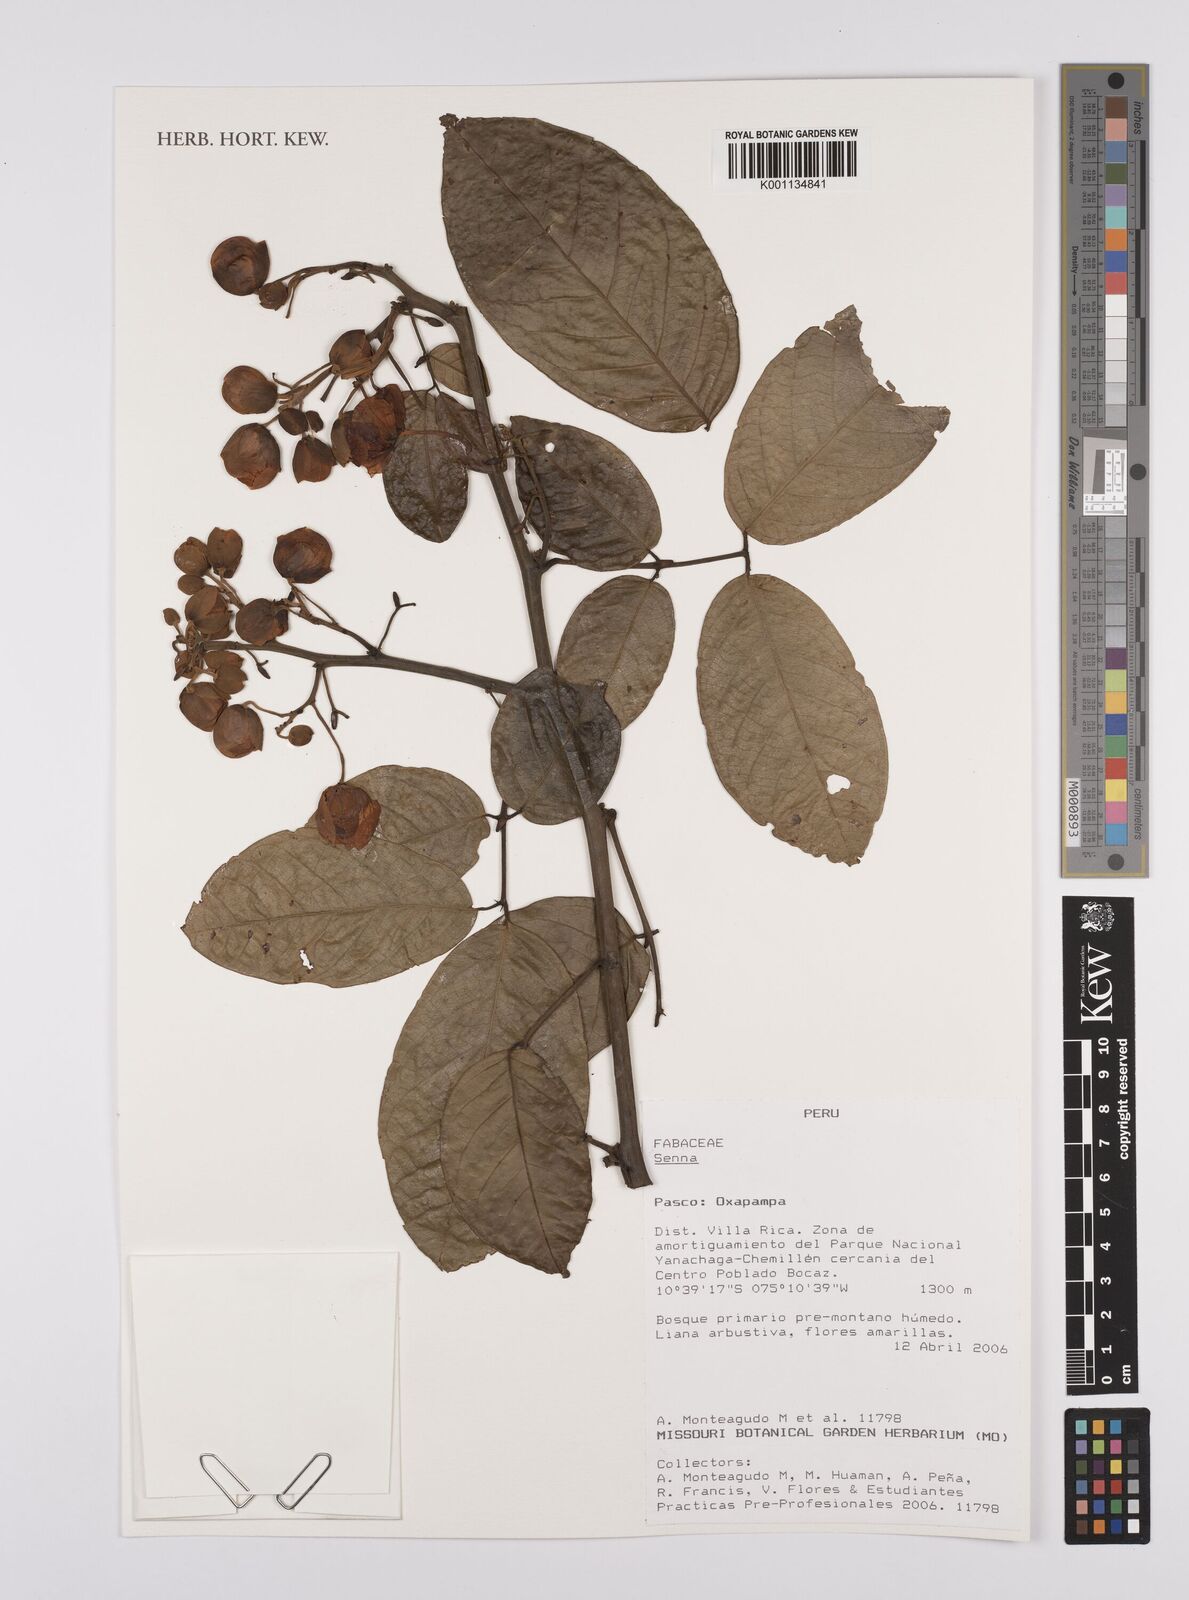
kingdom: Plantae
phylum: Tracheophyta
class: Magnoliopsida
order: Fabales
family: Fabaceae
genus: Senna
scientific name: Senna
